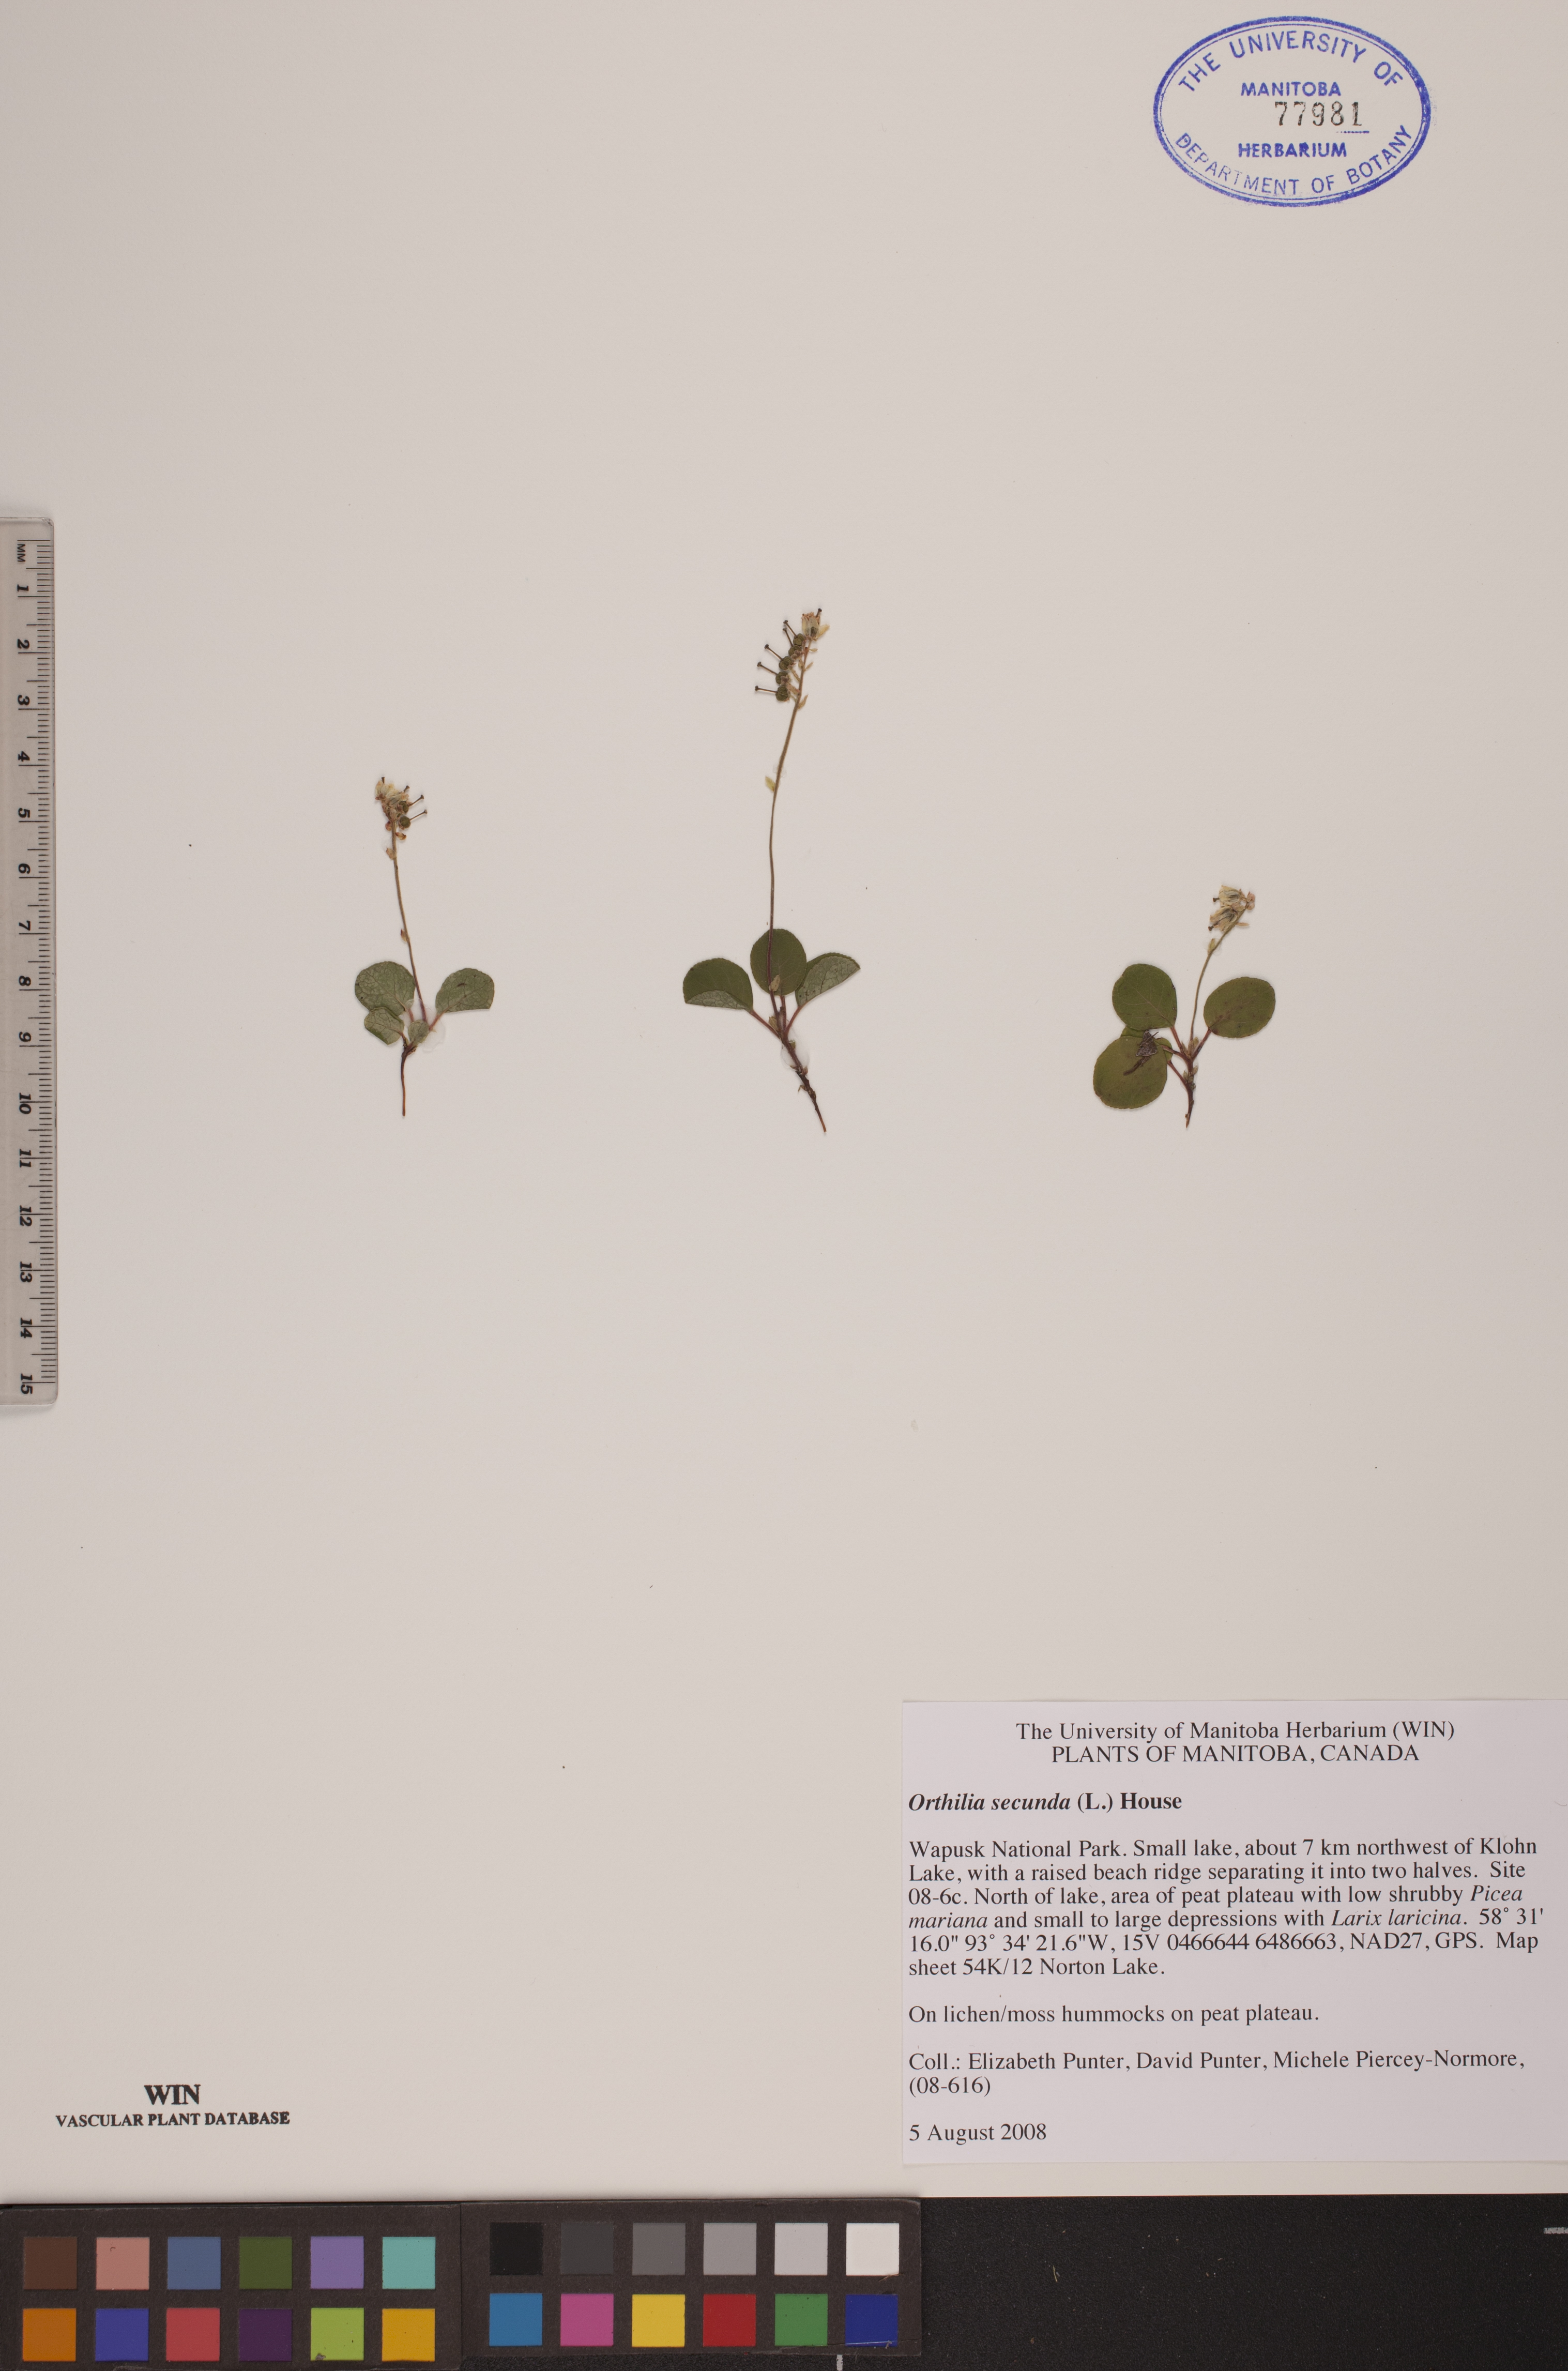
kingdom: Plantae
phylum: Tracheophyta
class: Magnoliopsida
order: Ericales
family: Ericaceae
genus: Orthilia
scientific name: Orthilia secunda
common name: One-sided orthilia
